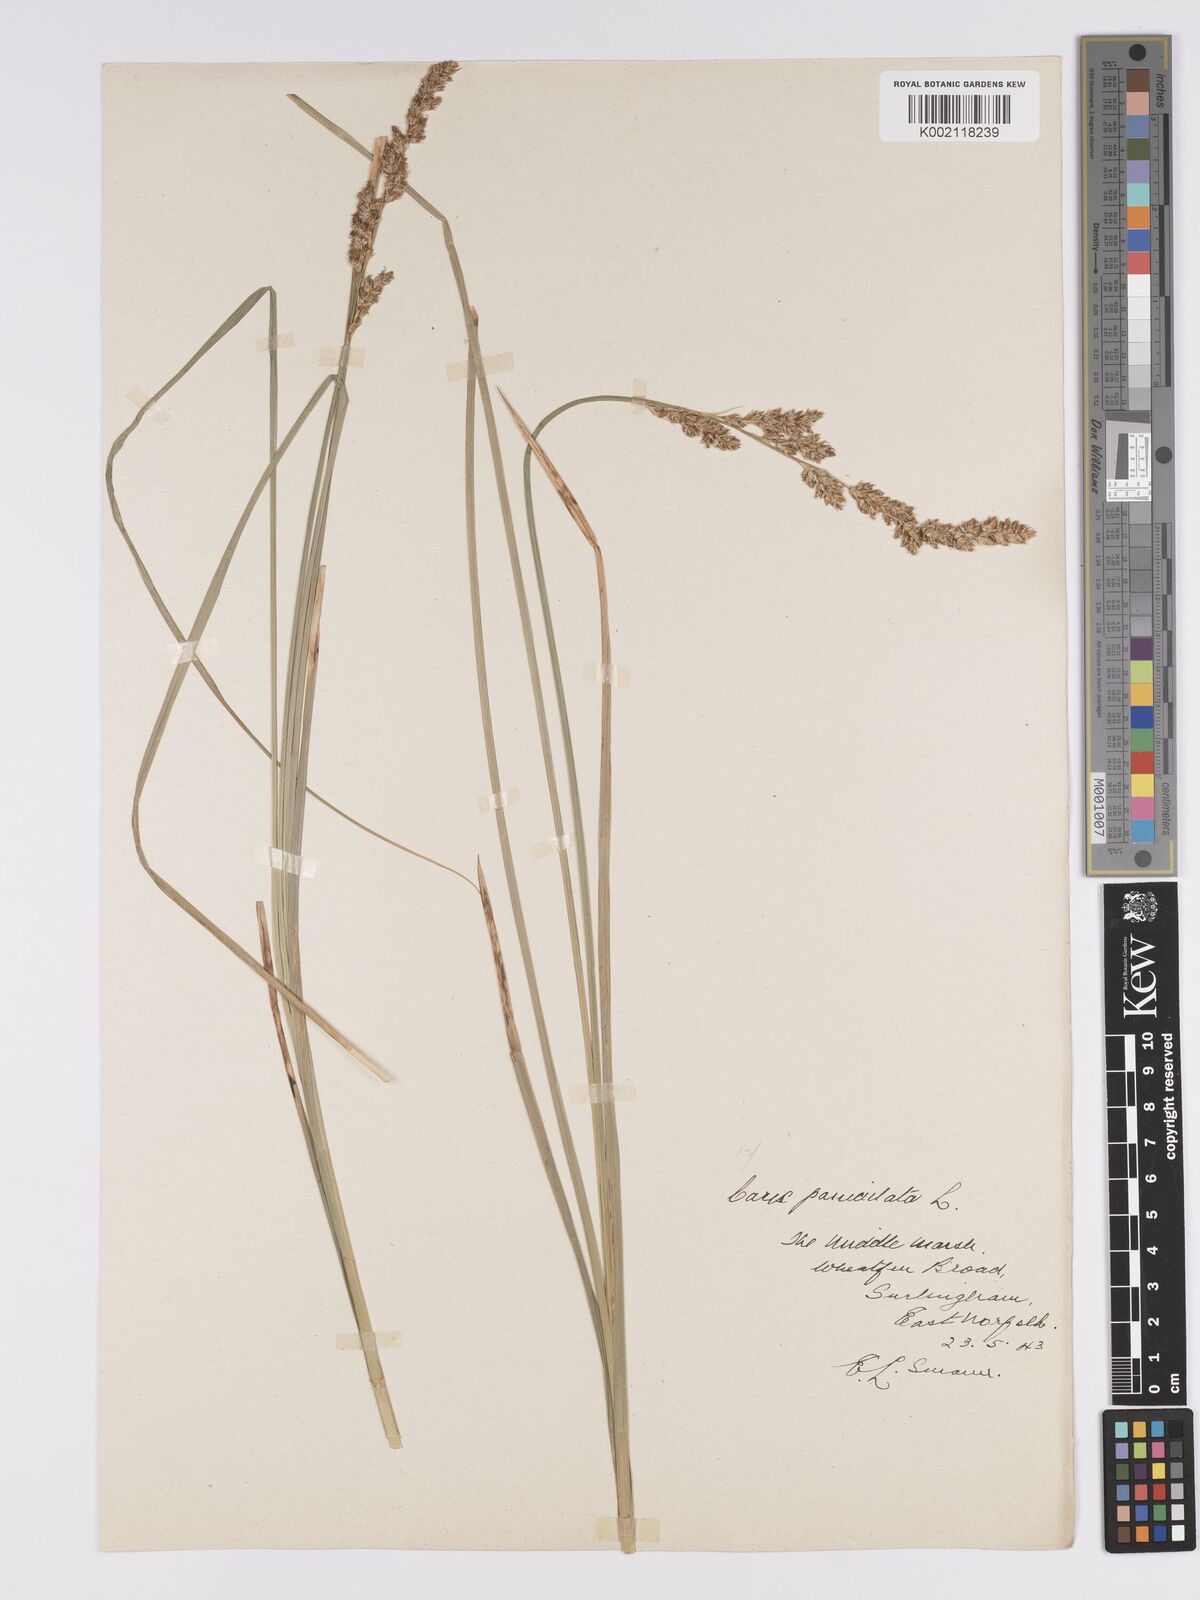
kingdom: Plantae
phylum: Tracheophyta
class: Liliopsida
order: Poales
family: Cyperaceae
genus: Carex
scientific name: Carex paniculata
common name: Greater tussock-sedge
